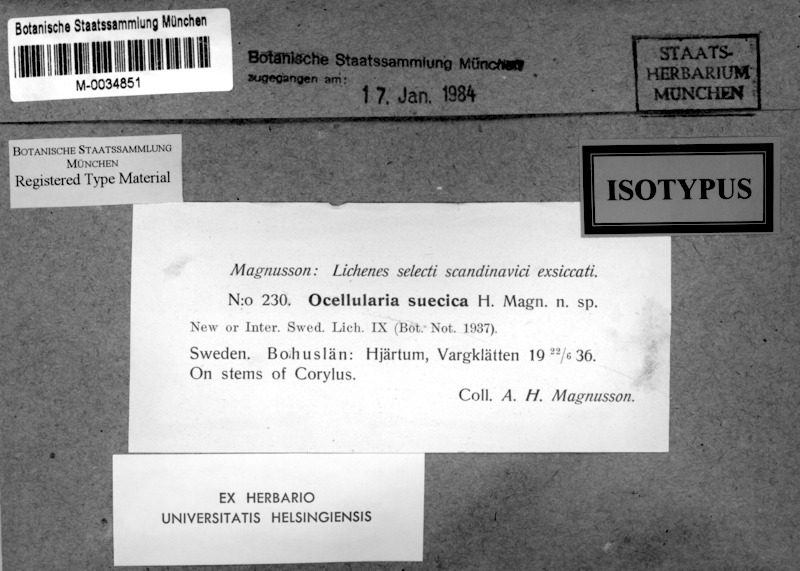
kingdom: Fungi
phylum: Ascomycota
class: Lecanoromycetes
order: Ostropales
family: Graphidaceae
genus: Thelotrema
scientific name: Thelotrema suecicum
